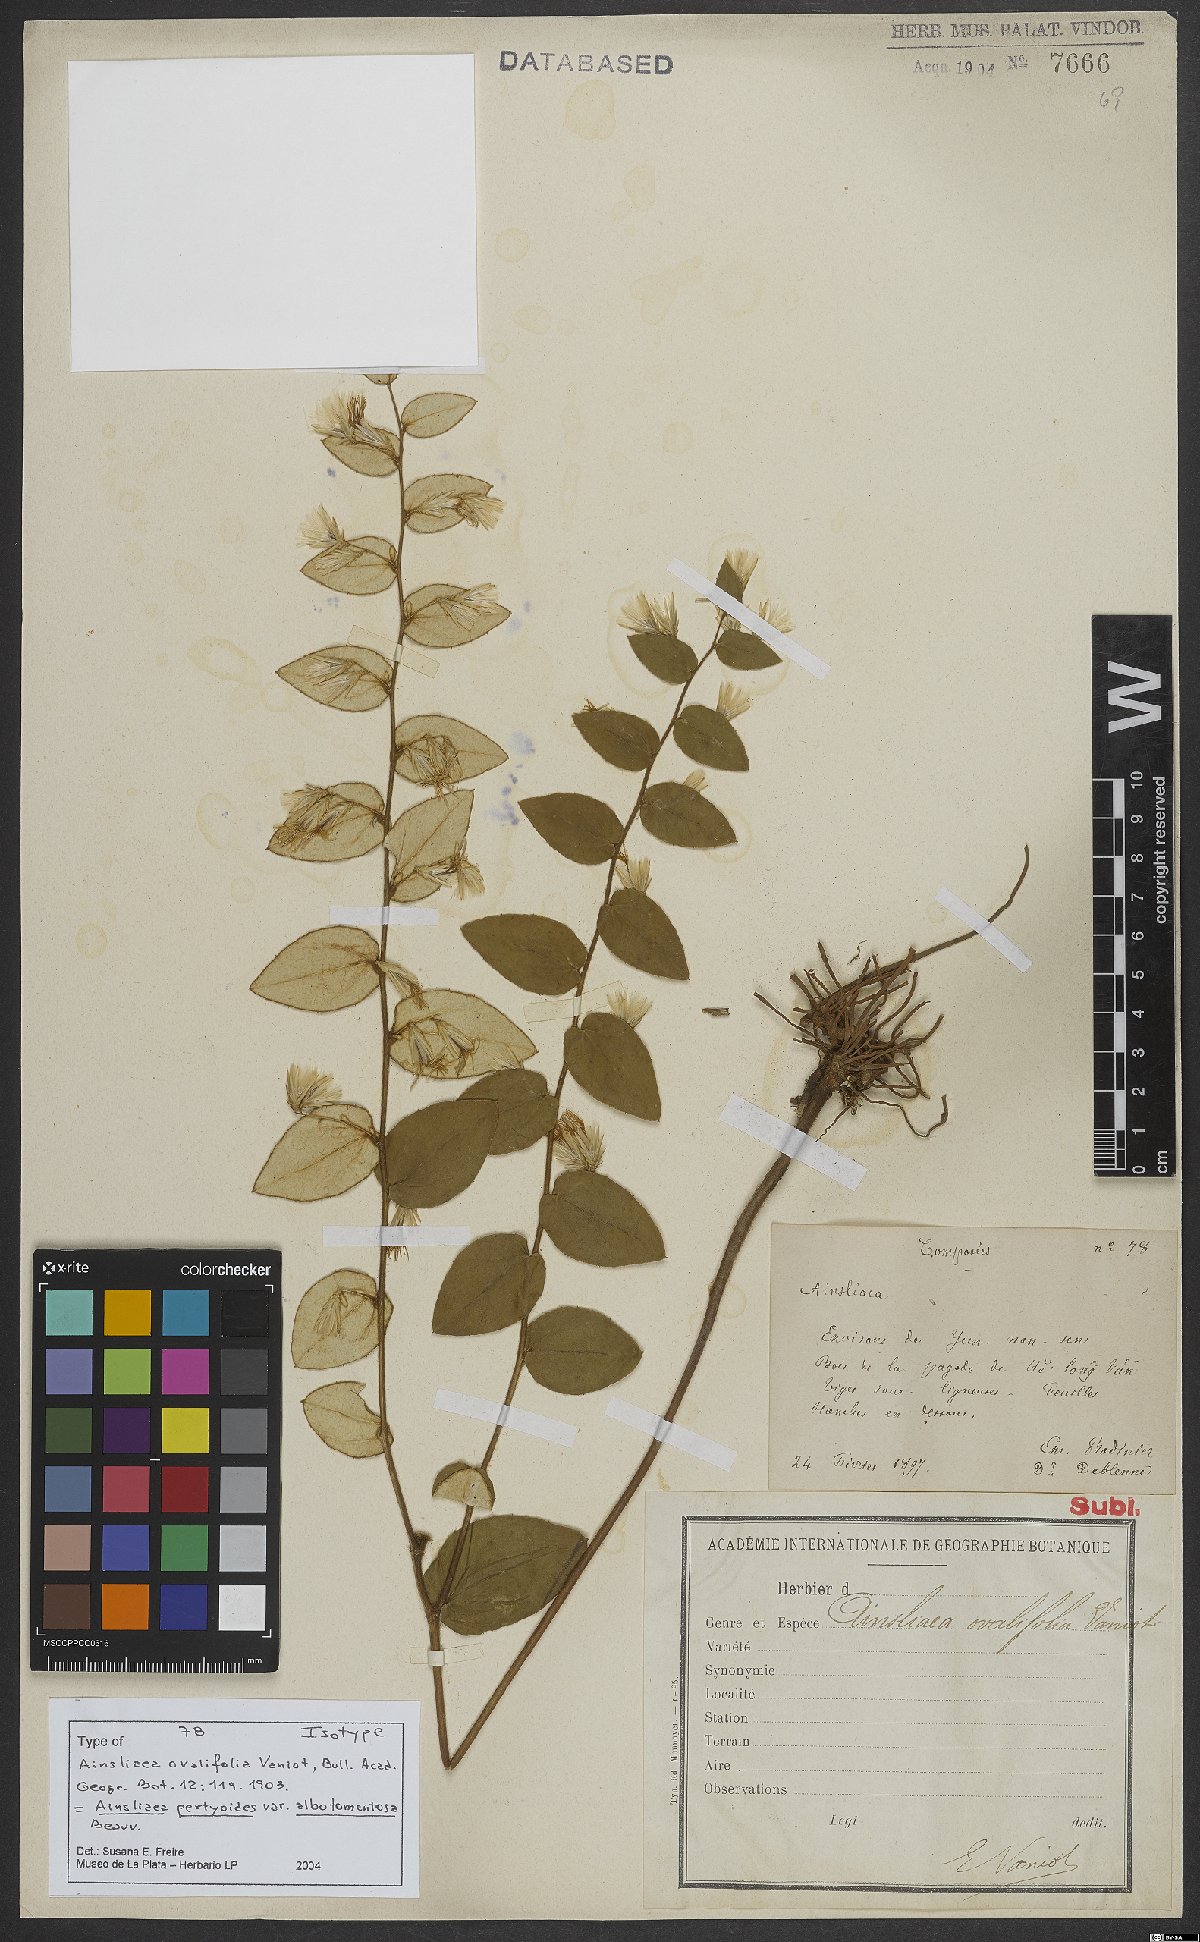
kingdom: Plantae
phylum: Tracheophyta
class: Magnoliopsida
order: Asterales
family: Asteraceae
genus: Ainsliaea
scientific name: Ainsliaea pertyoides
